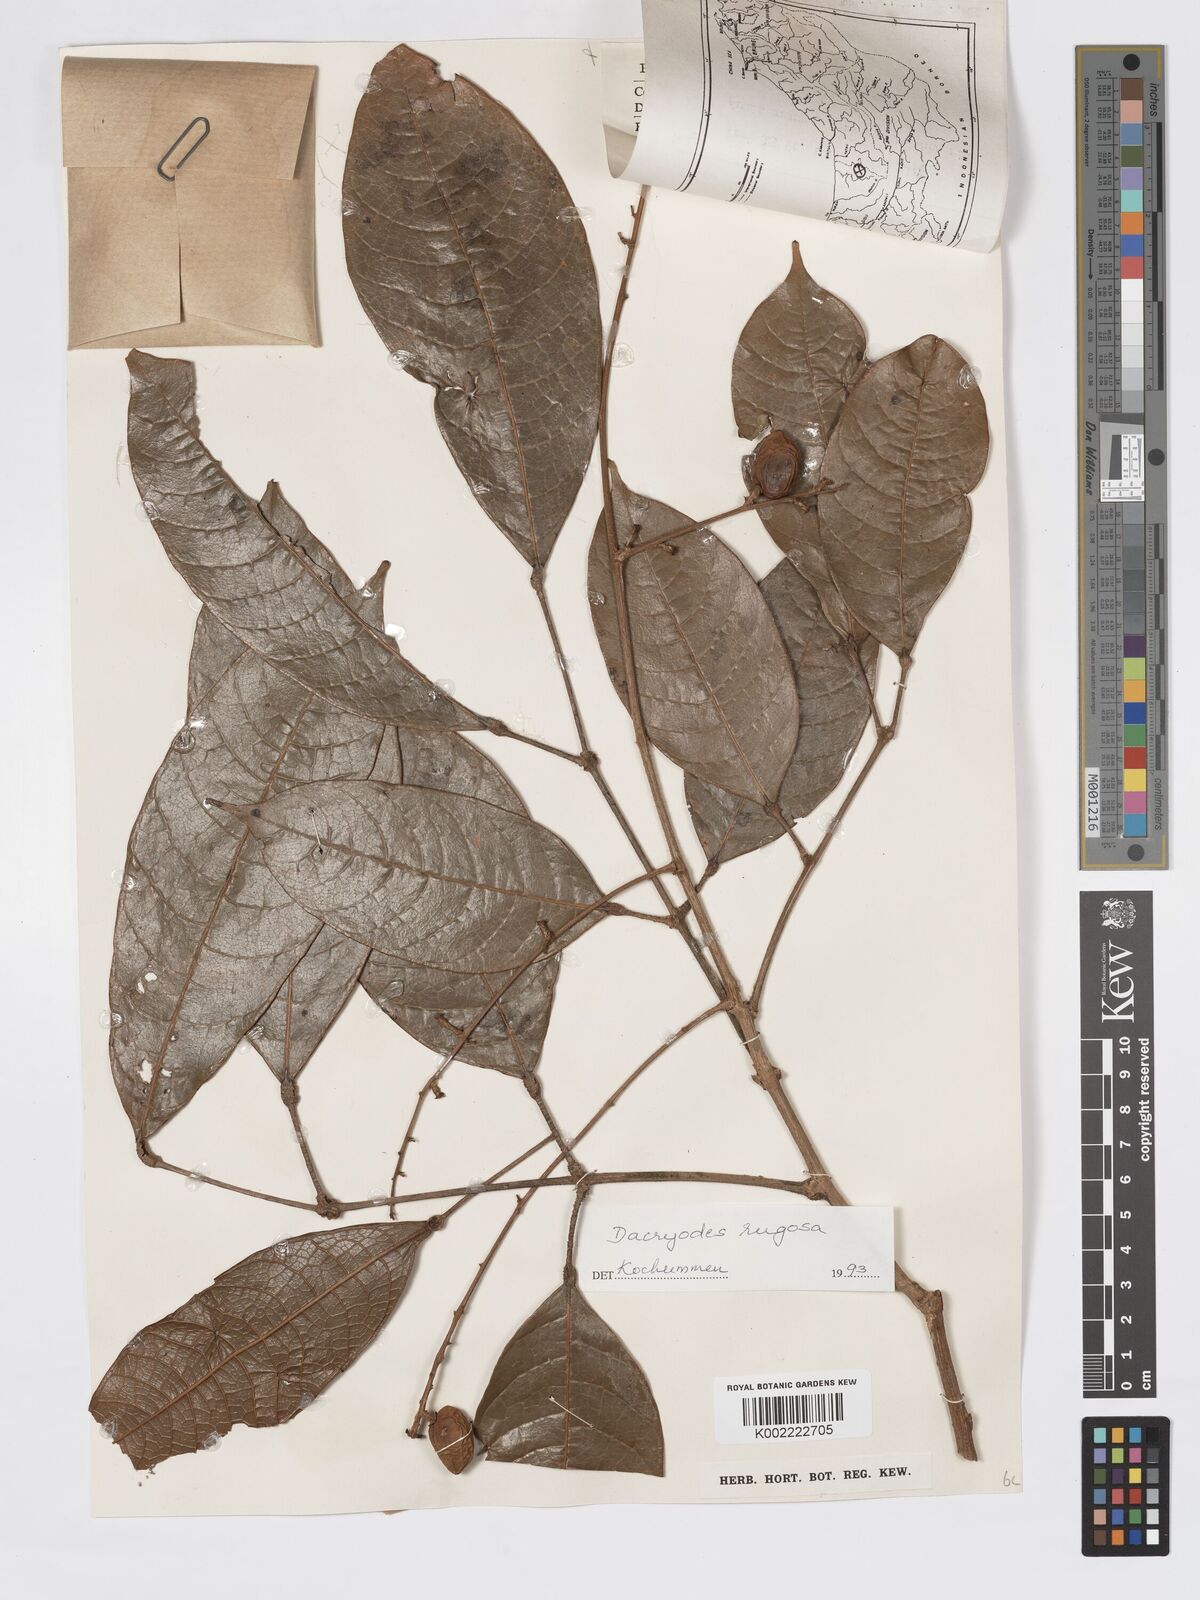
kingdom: Plantae
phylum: Tracheophyta
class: Magnoliopsida
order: Sapindales
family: Burseraceae
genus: Dacryodes
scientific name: Dacryodes rugosa
